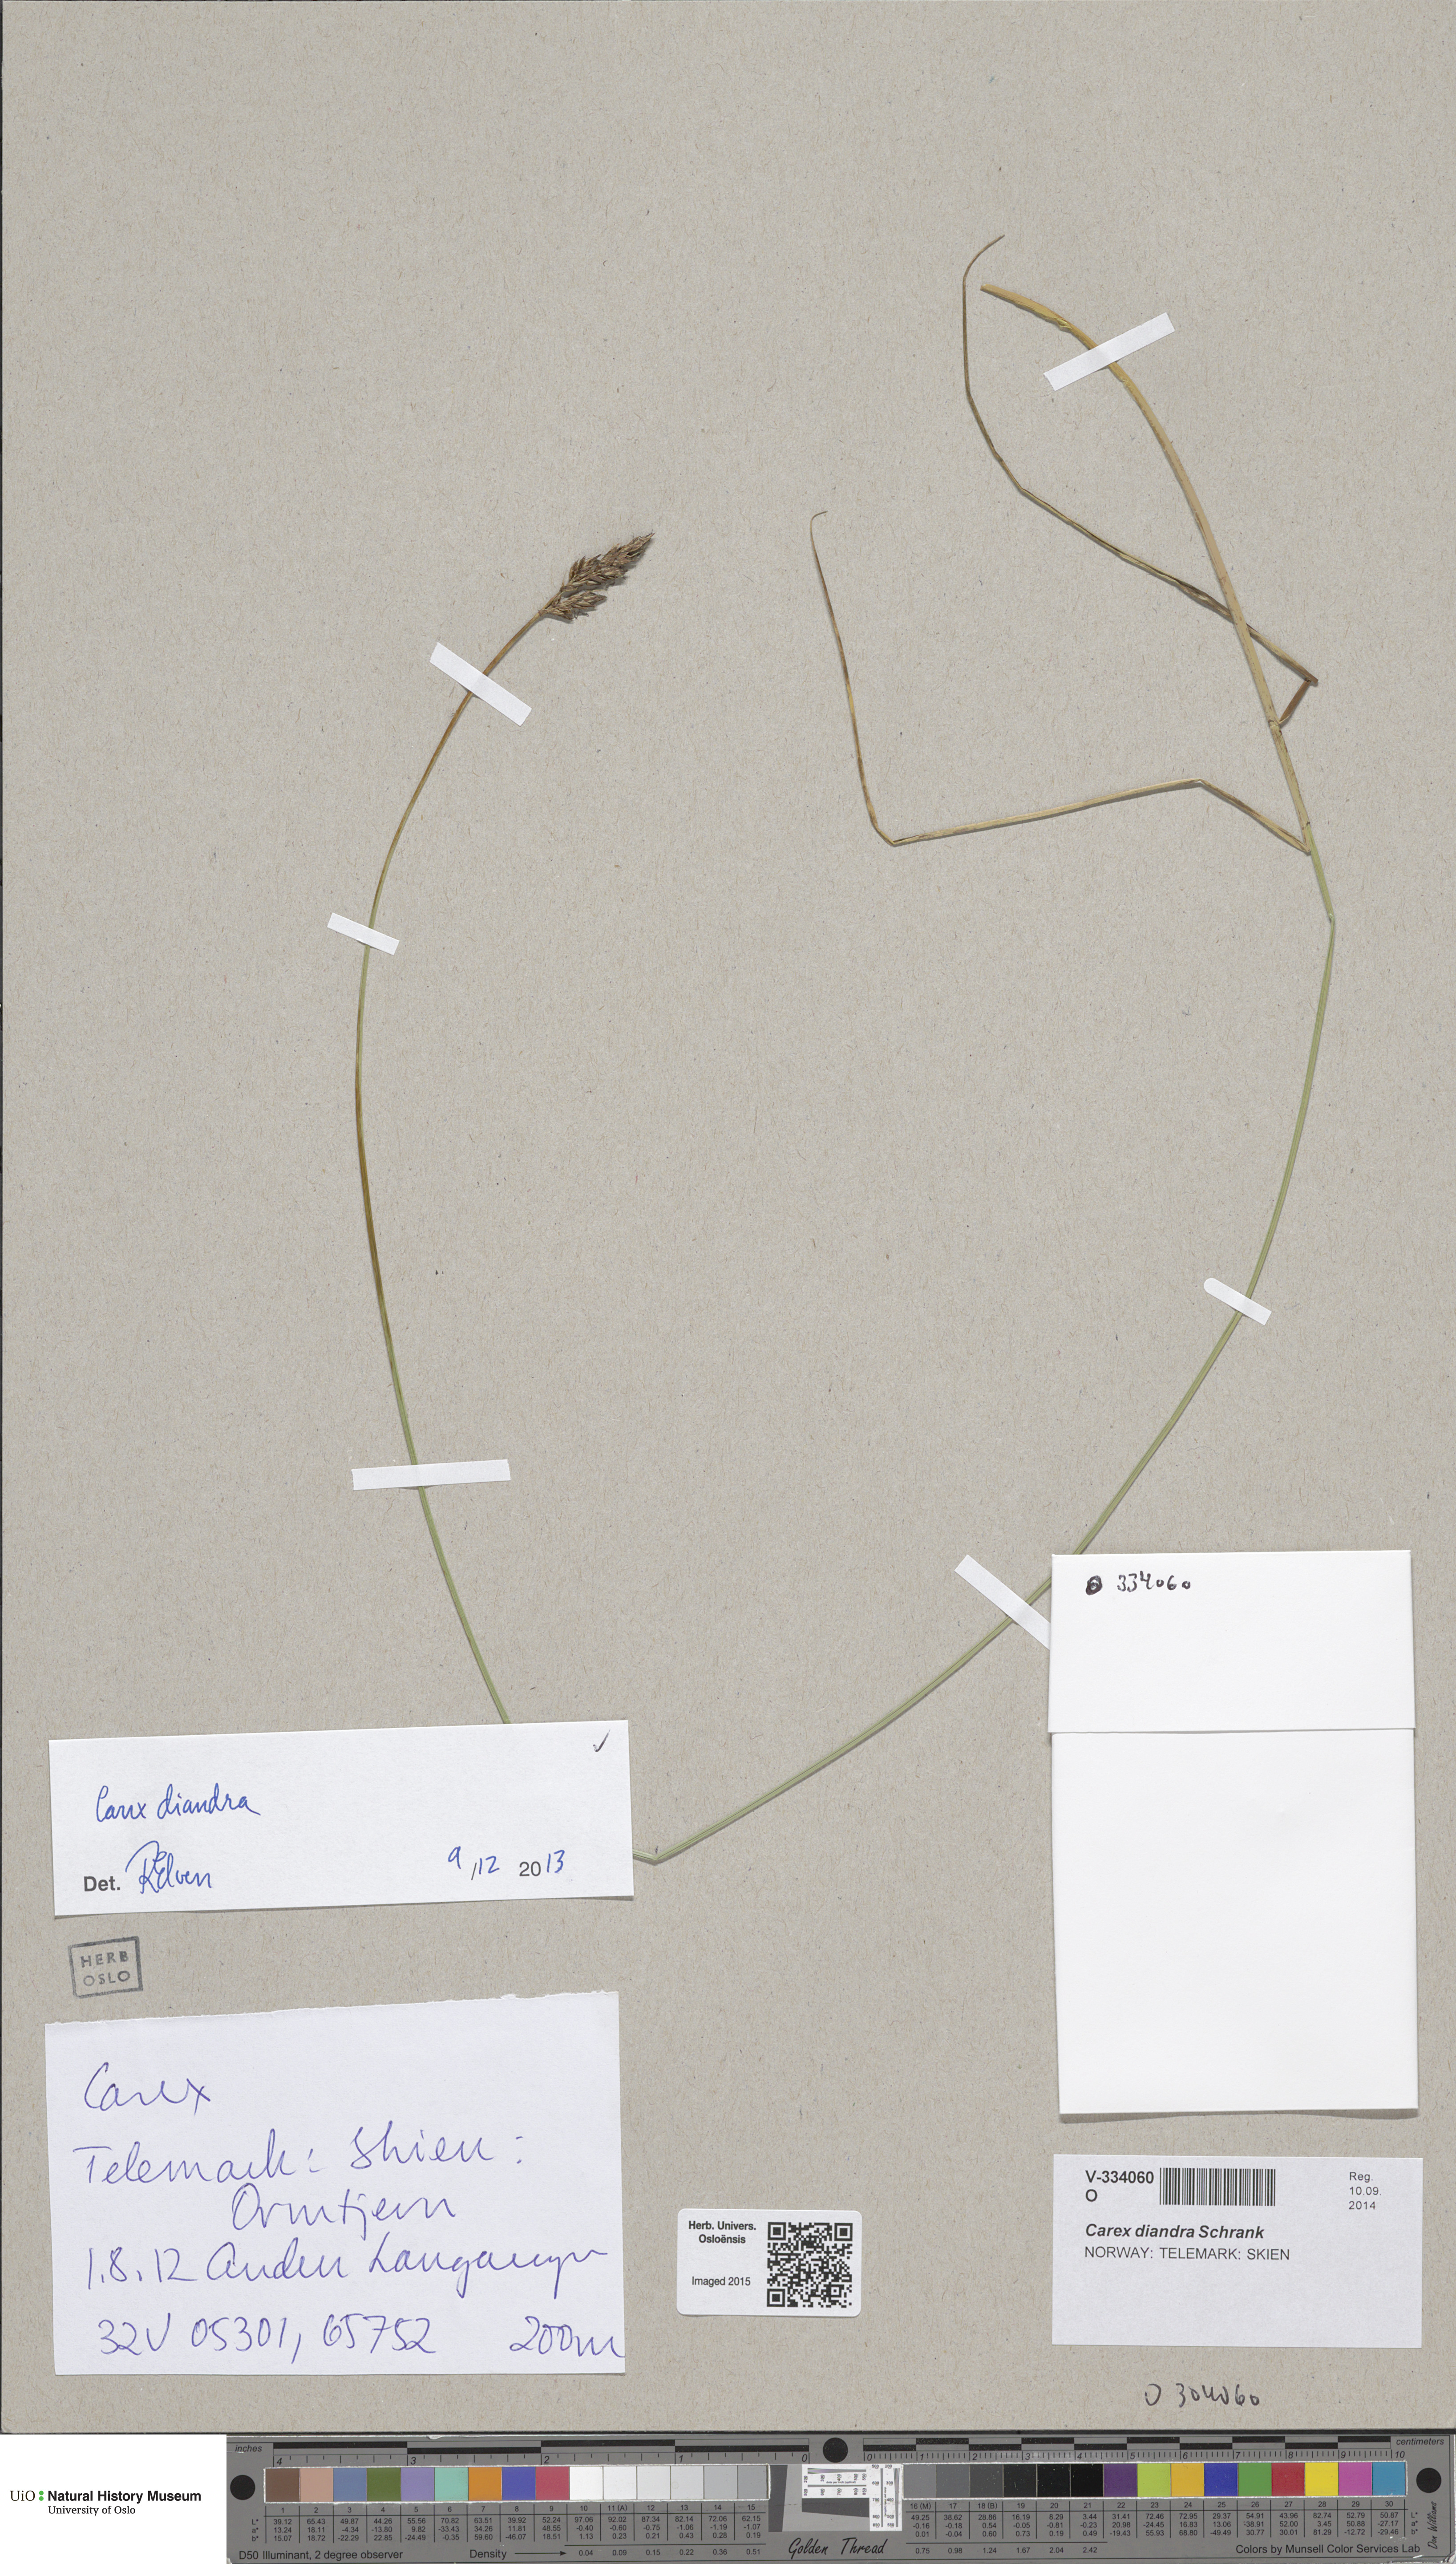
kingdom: Plantae
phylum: Tracheophyta
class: Liliopsida
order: Poales
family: Cyperaceae
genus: Carex
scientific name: Carex diandra
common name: Lesser tussock-sedge
